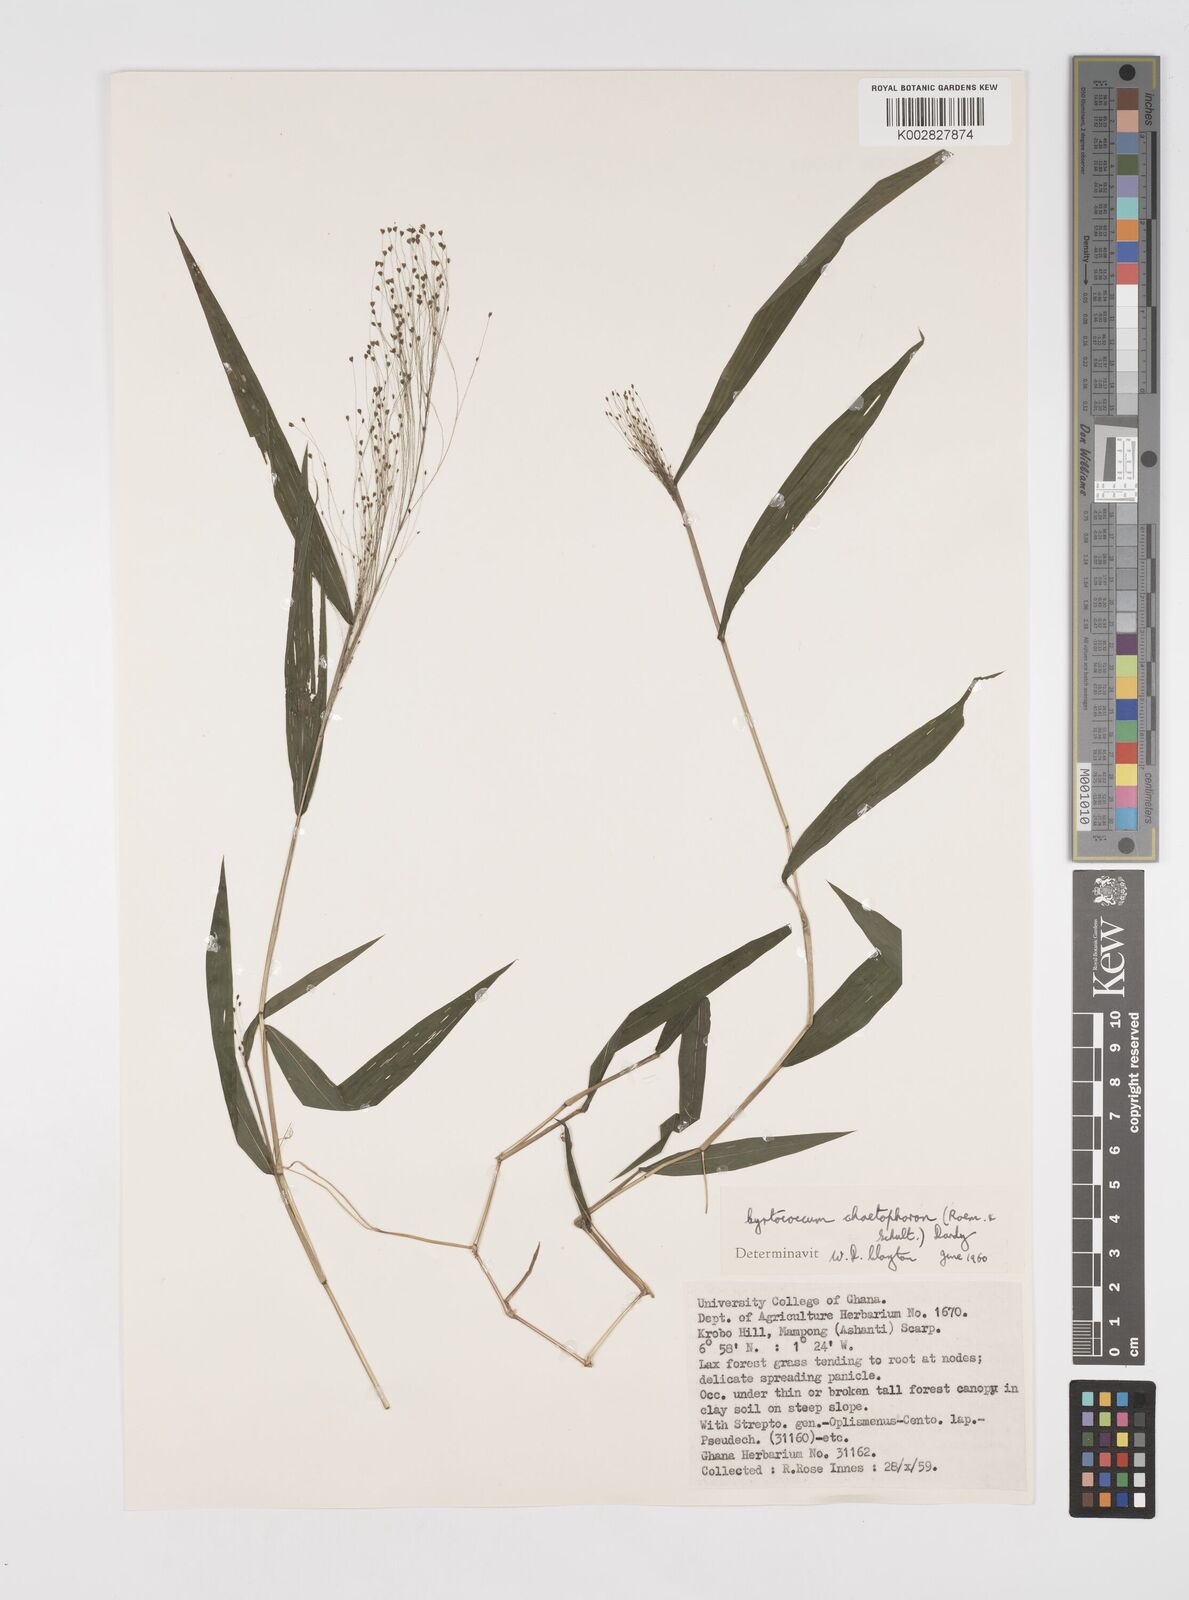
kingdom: Plantae
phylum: Tracheophyta
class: Liliopsida
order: Poales
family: Poaceae
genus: Cyrtococcum
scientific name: Cyrtococcum chaetophoron
